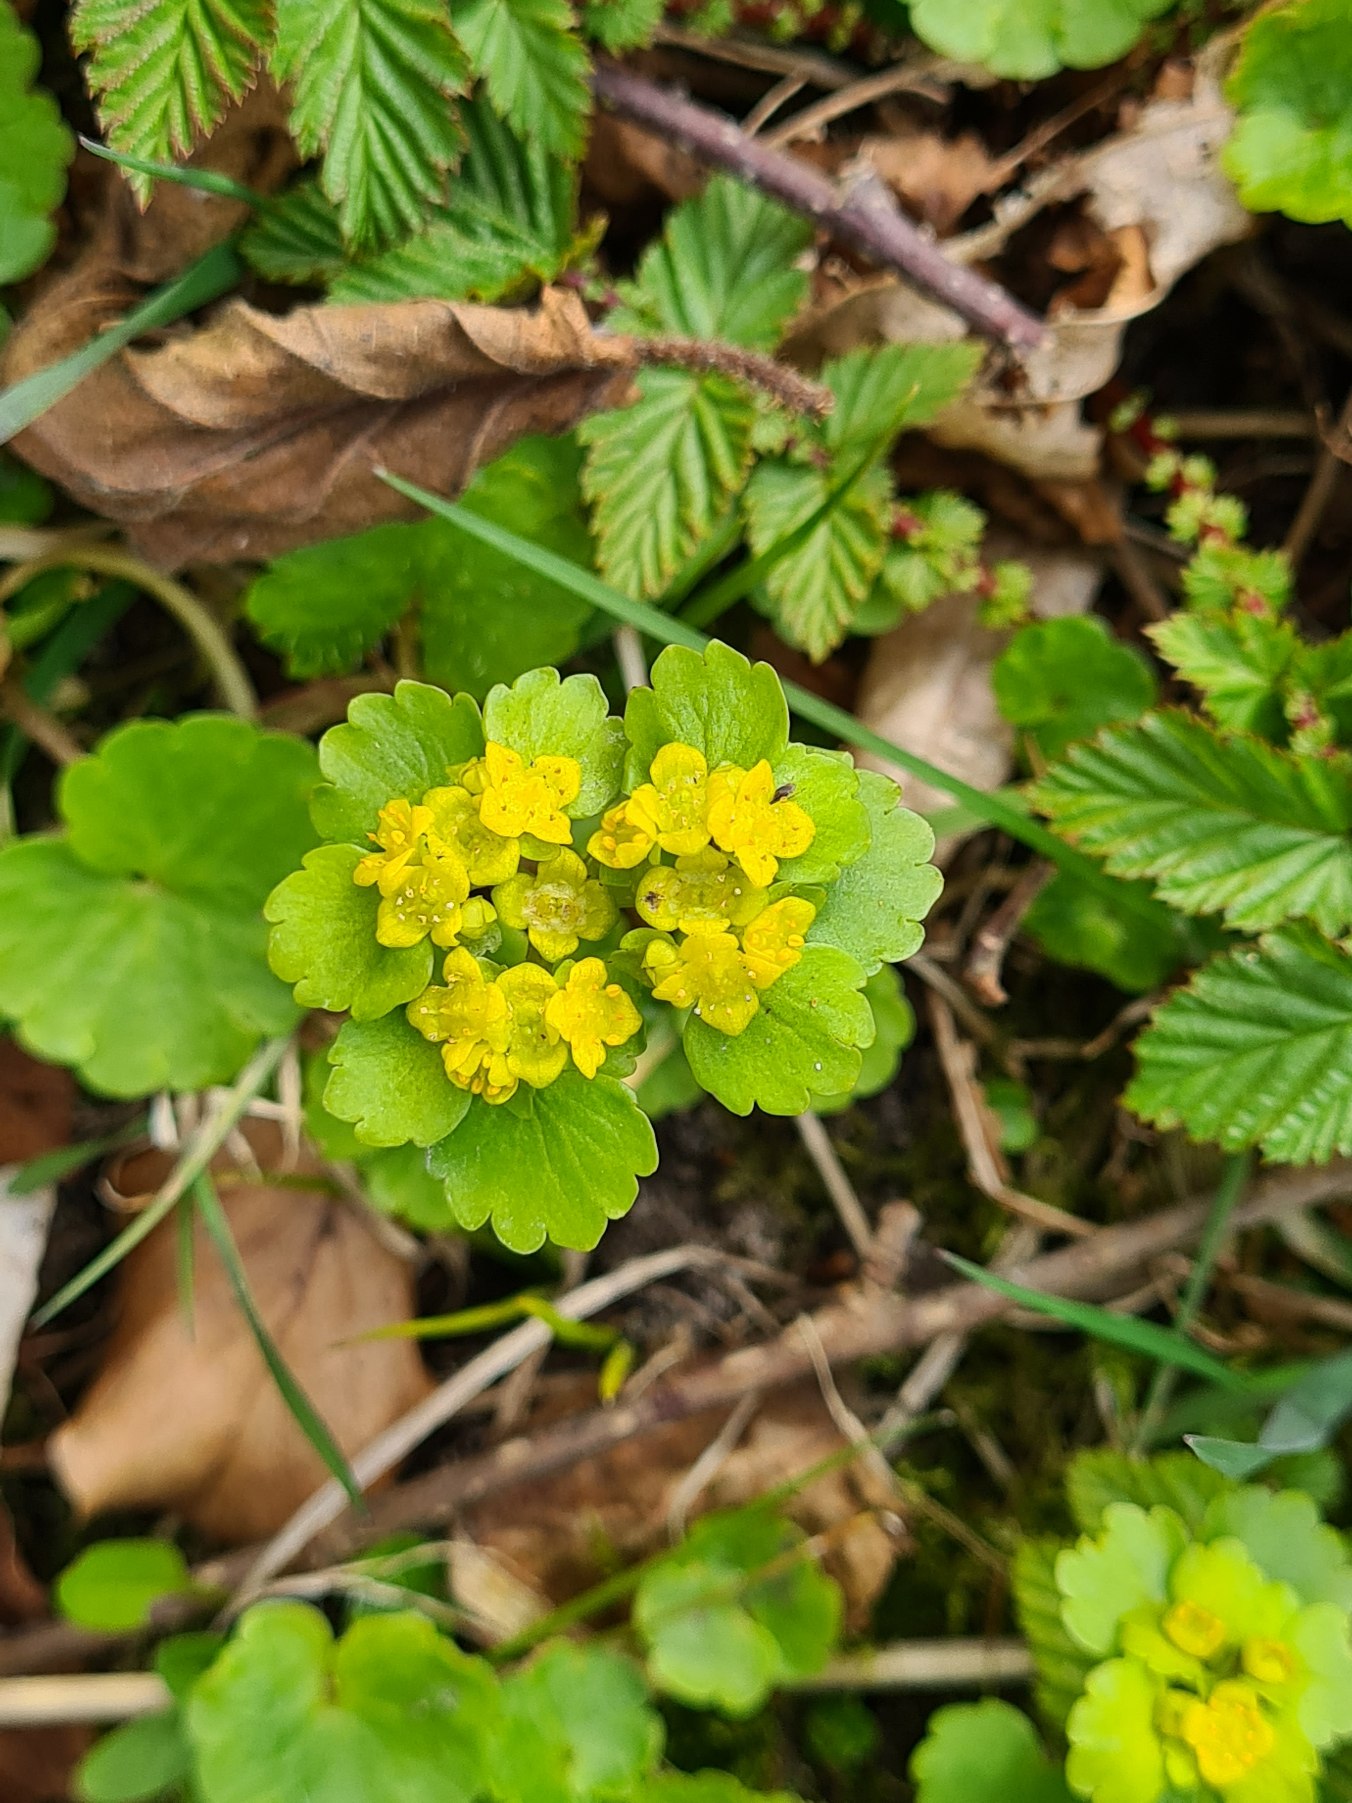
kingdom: Plantae
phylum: Tracheophyta
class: Magnoliopsida
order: Saxifragales
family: Saxifragaceae
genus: Chrysosplenium
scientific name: Chrysosplenium alternifolium
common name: Almindelig milturt
